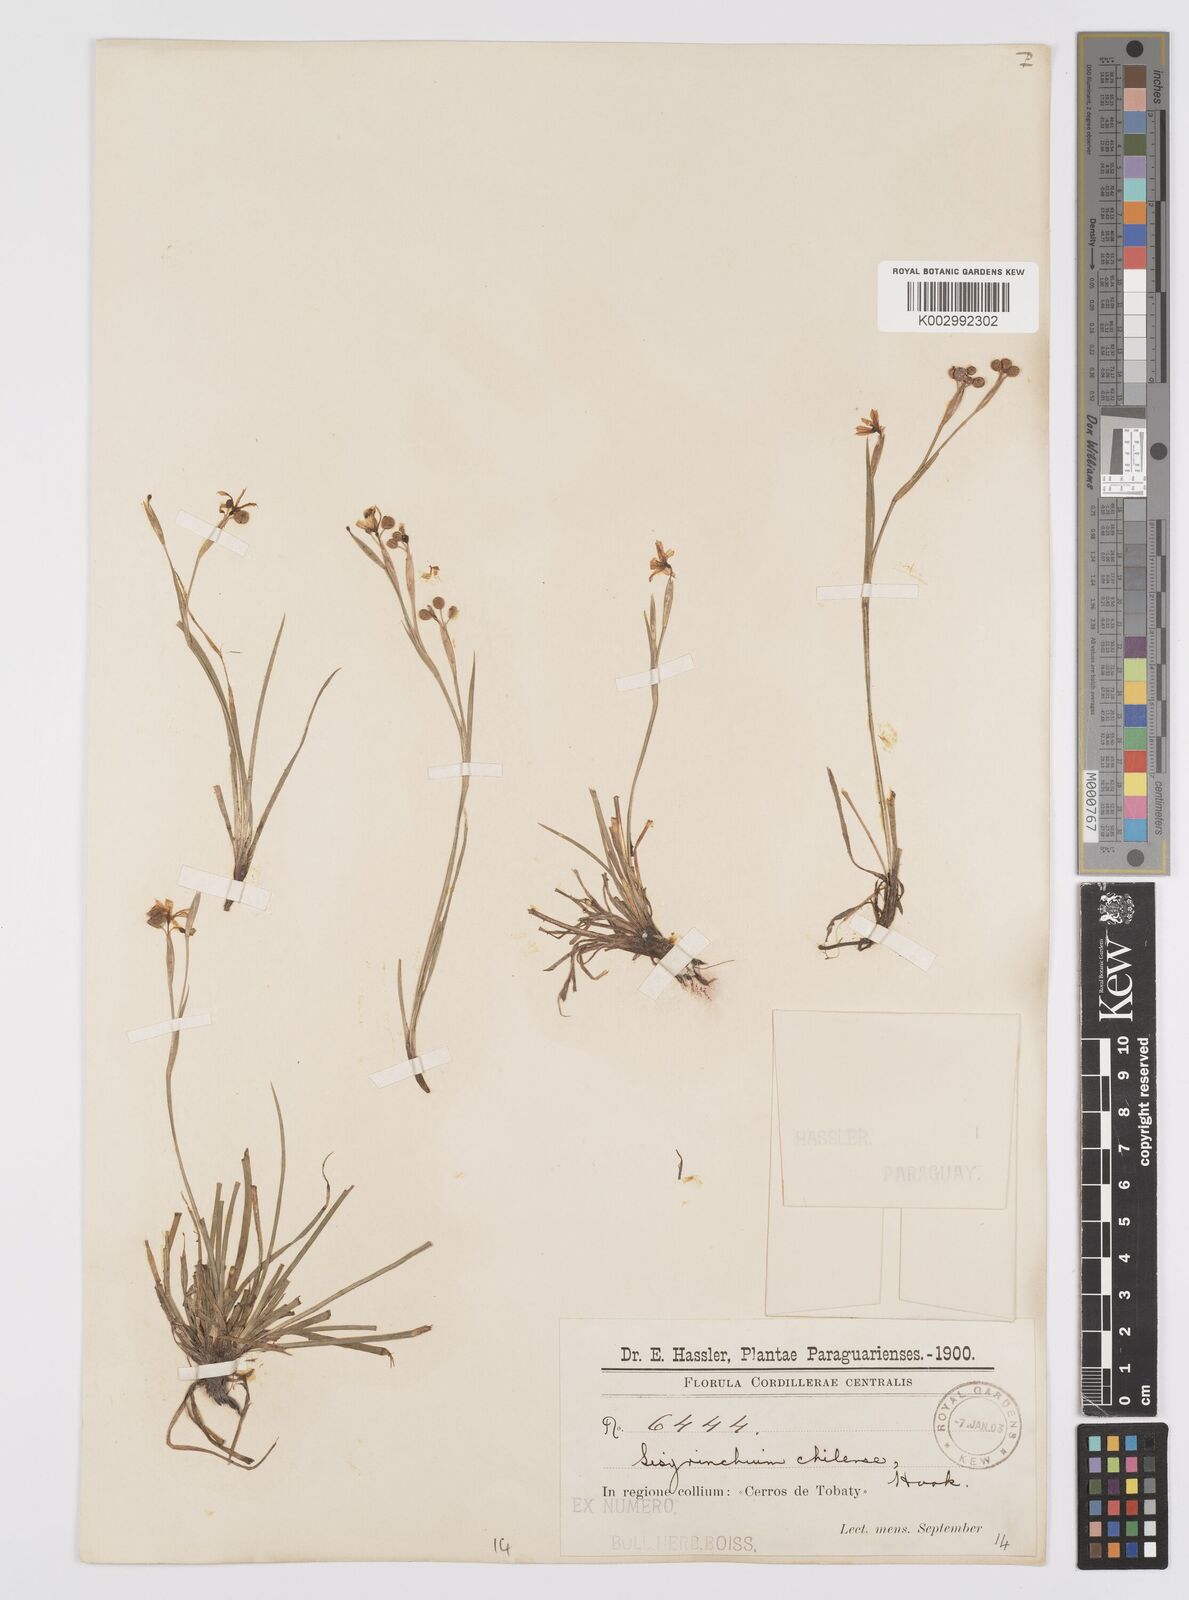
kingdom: Plantae
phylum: Tracheophyta
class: Liliopsida
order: Asparagales
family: Iridaceae
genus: Sisyrinchium
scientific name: Sisyrinchium chilense
